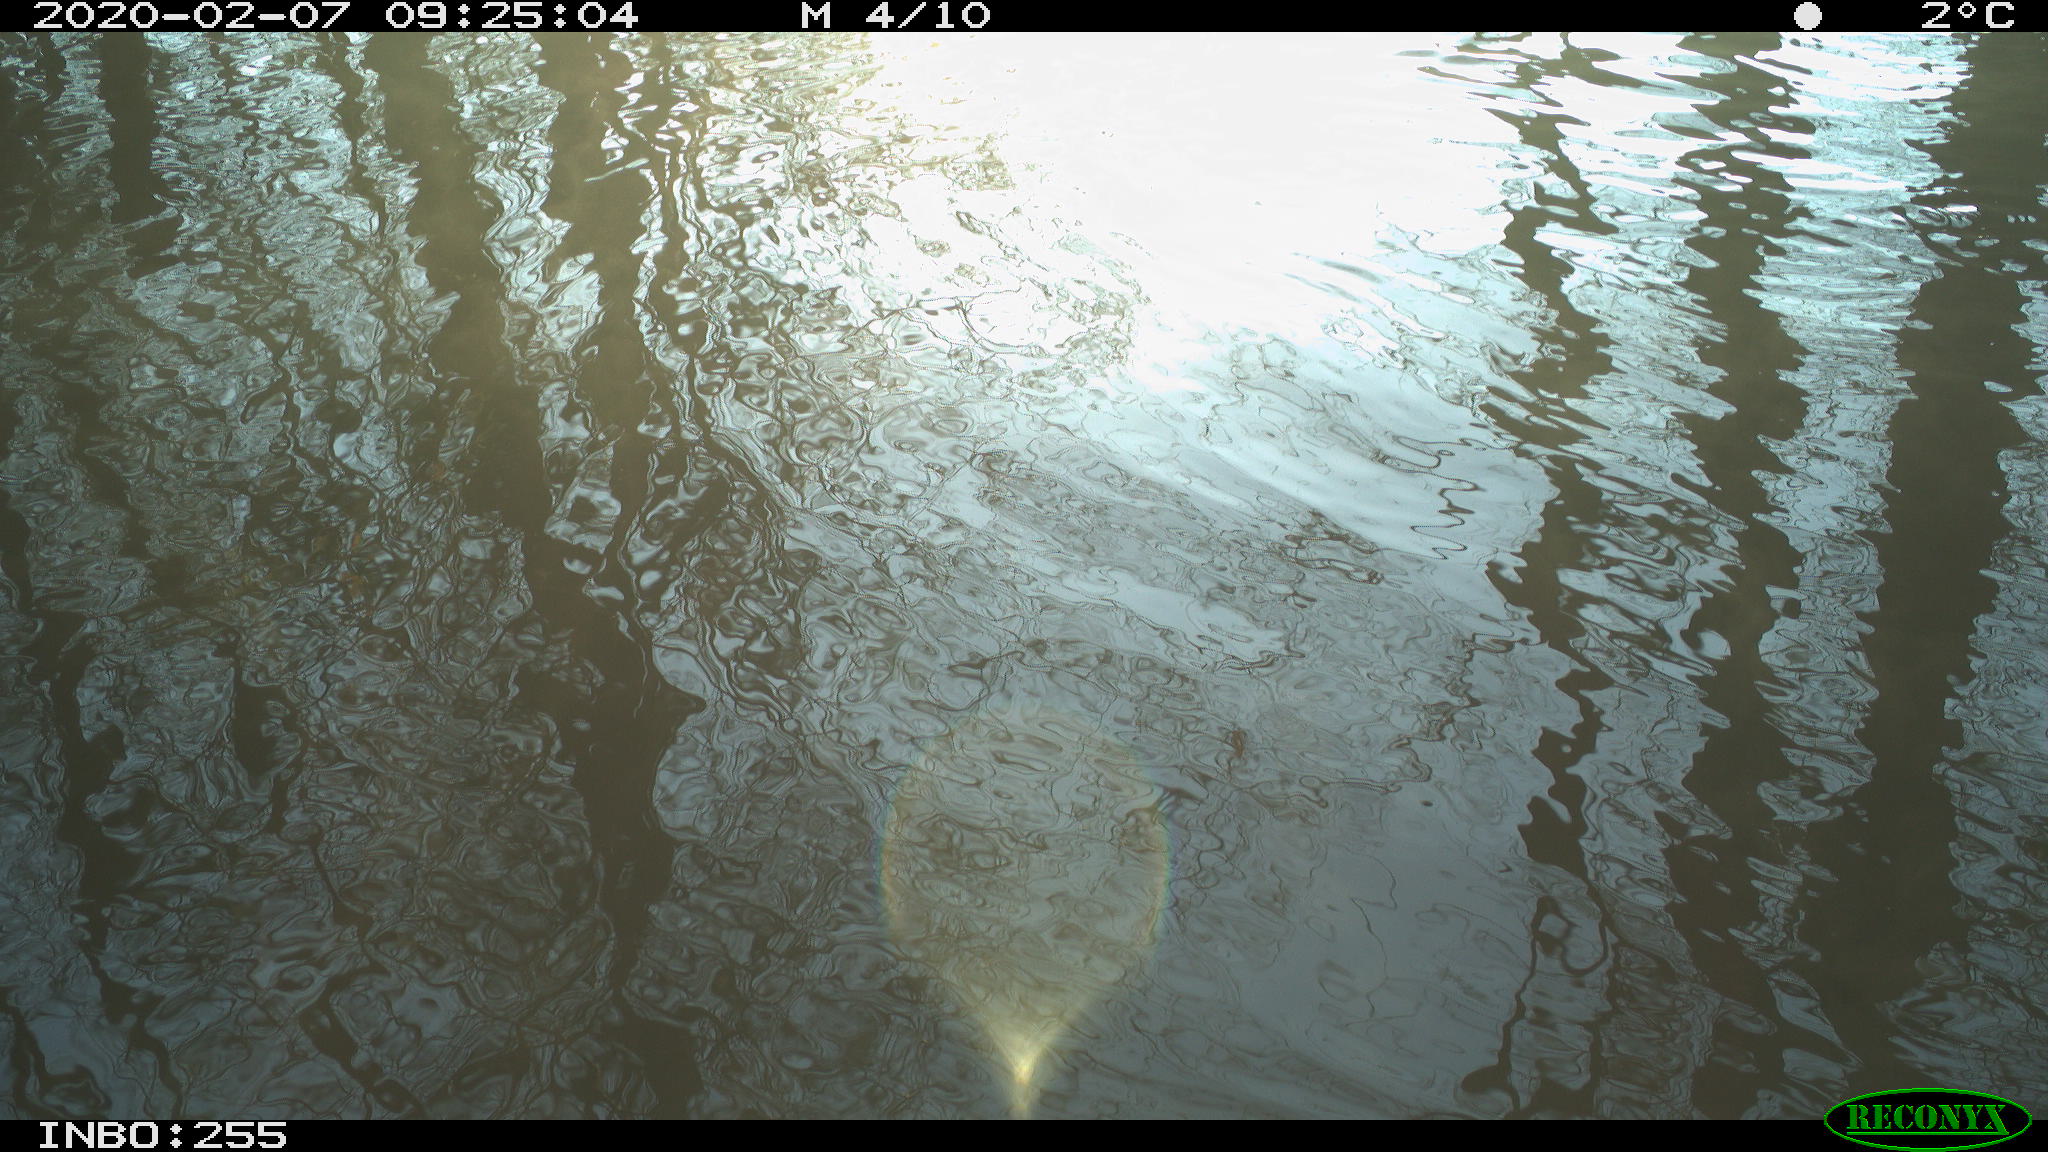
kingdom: Animalia
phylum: Chordata
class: Aves
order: Gruiformes
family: Rallidae
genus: Fulica
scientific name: Fulica atra
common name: Eurasian coot
